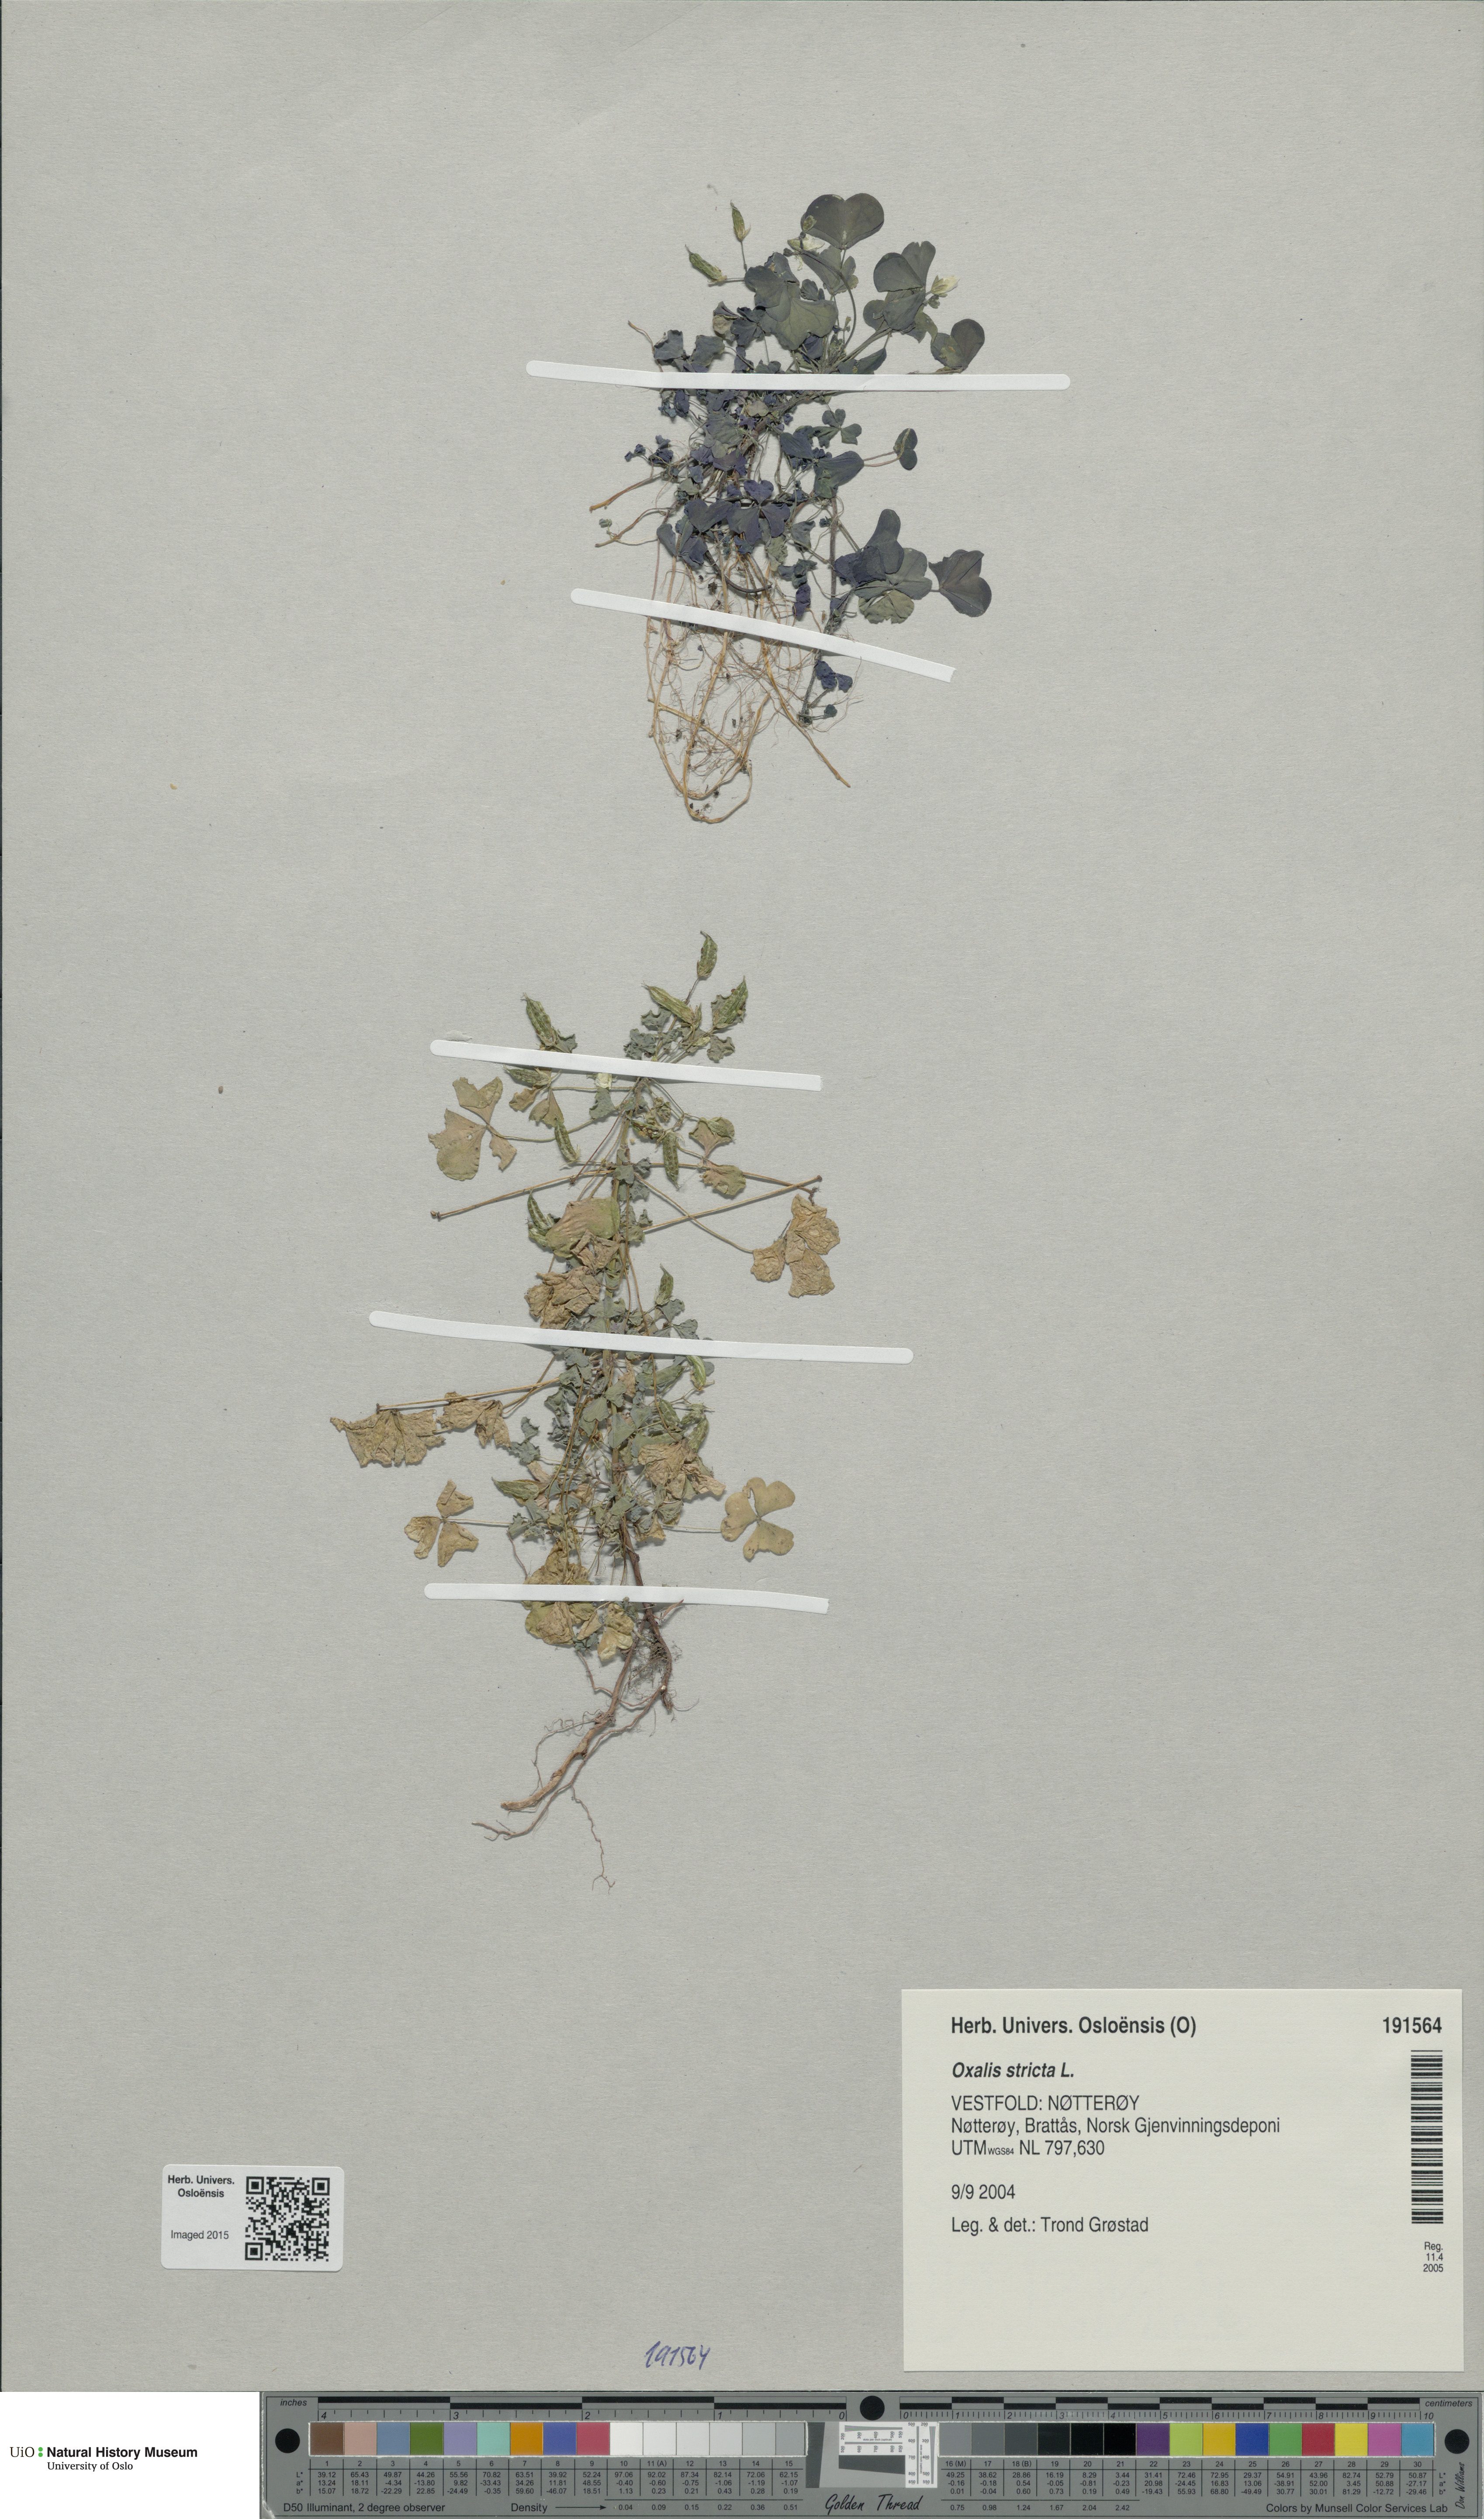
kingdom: Plantae
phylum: Tracheophyta
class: Magnoliopsida
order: Oxalidales
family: Oxalidaceae
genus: Oxalis
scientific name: Oxalis dillenii
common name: Sussex yellow-sorrel
